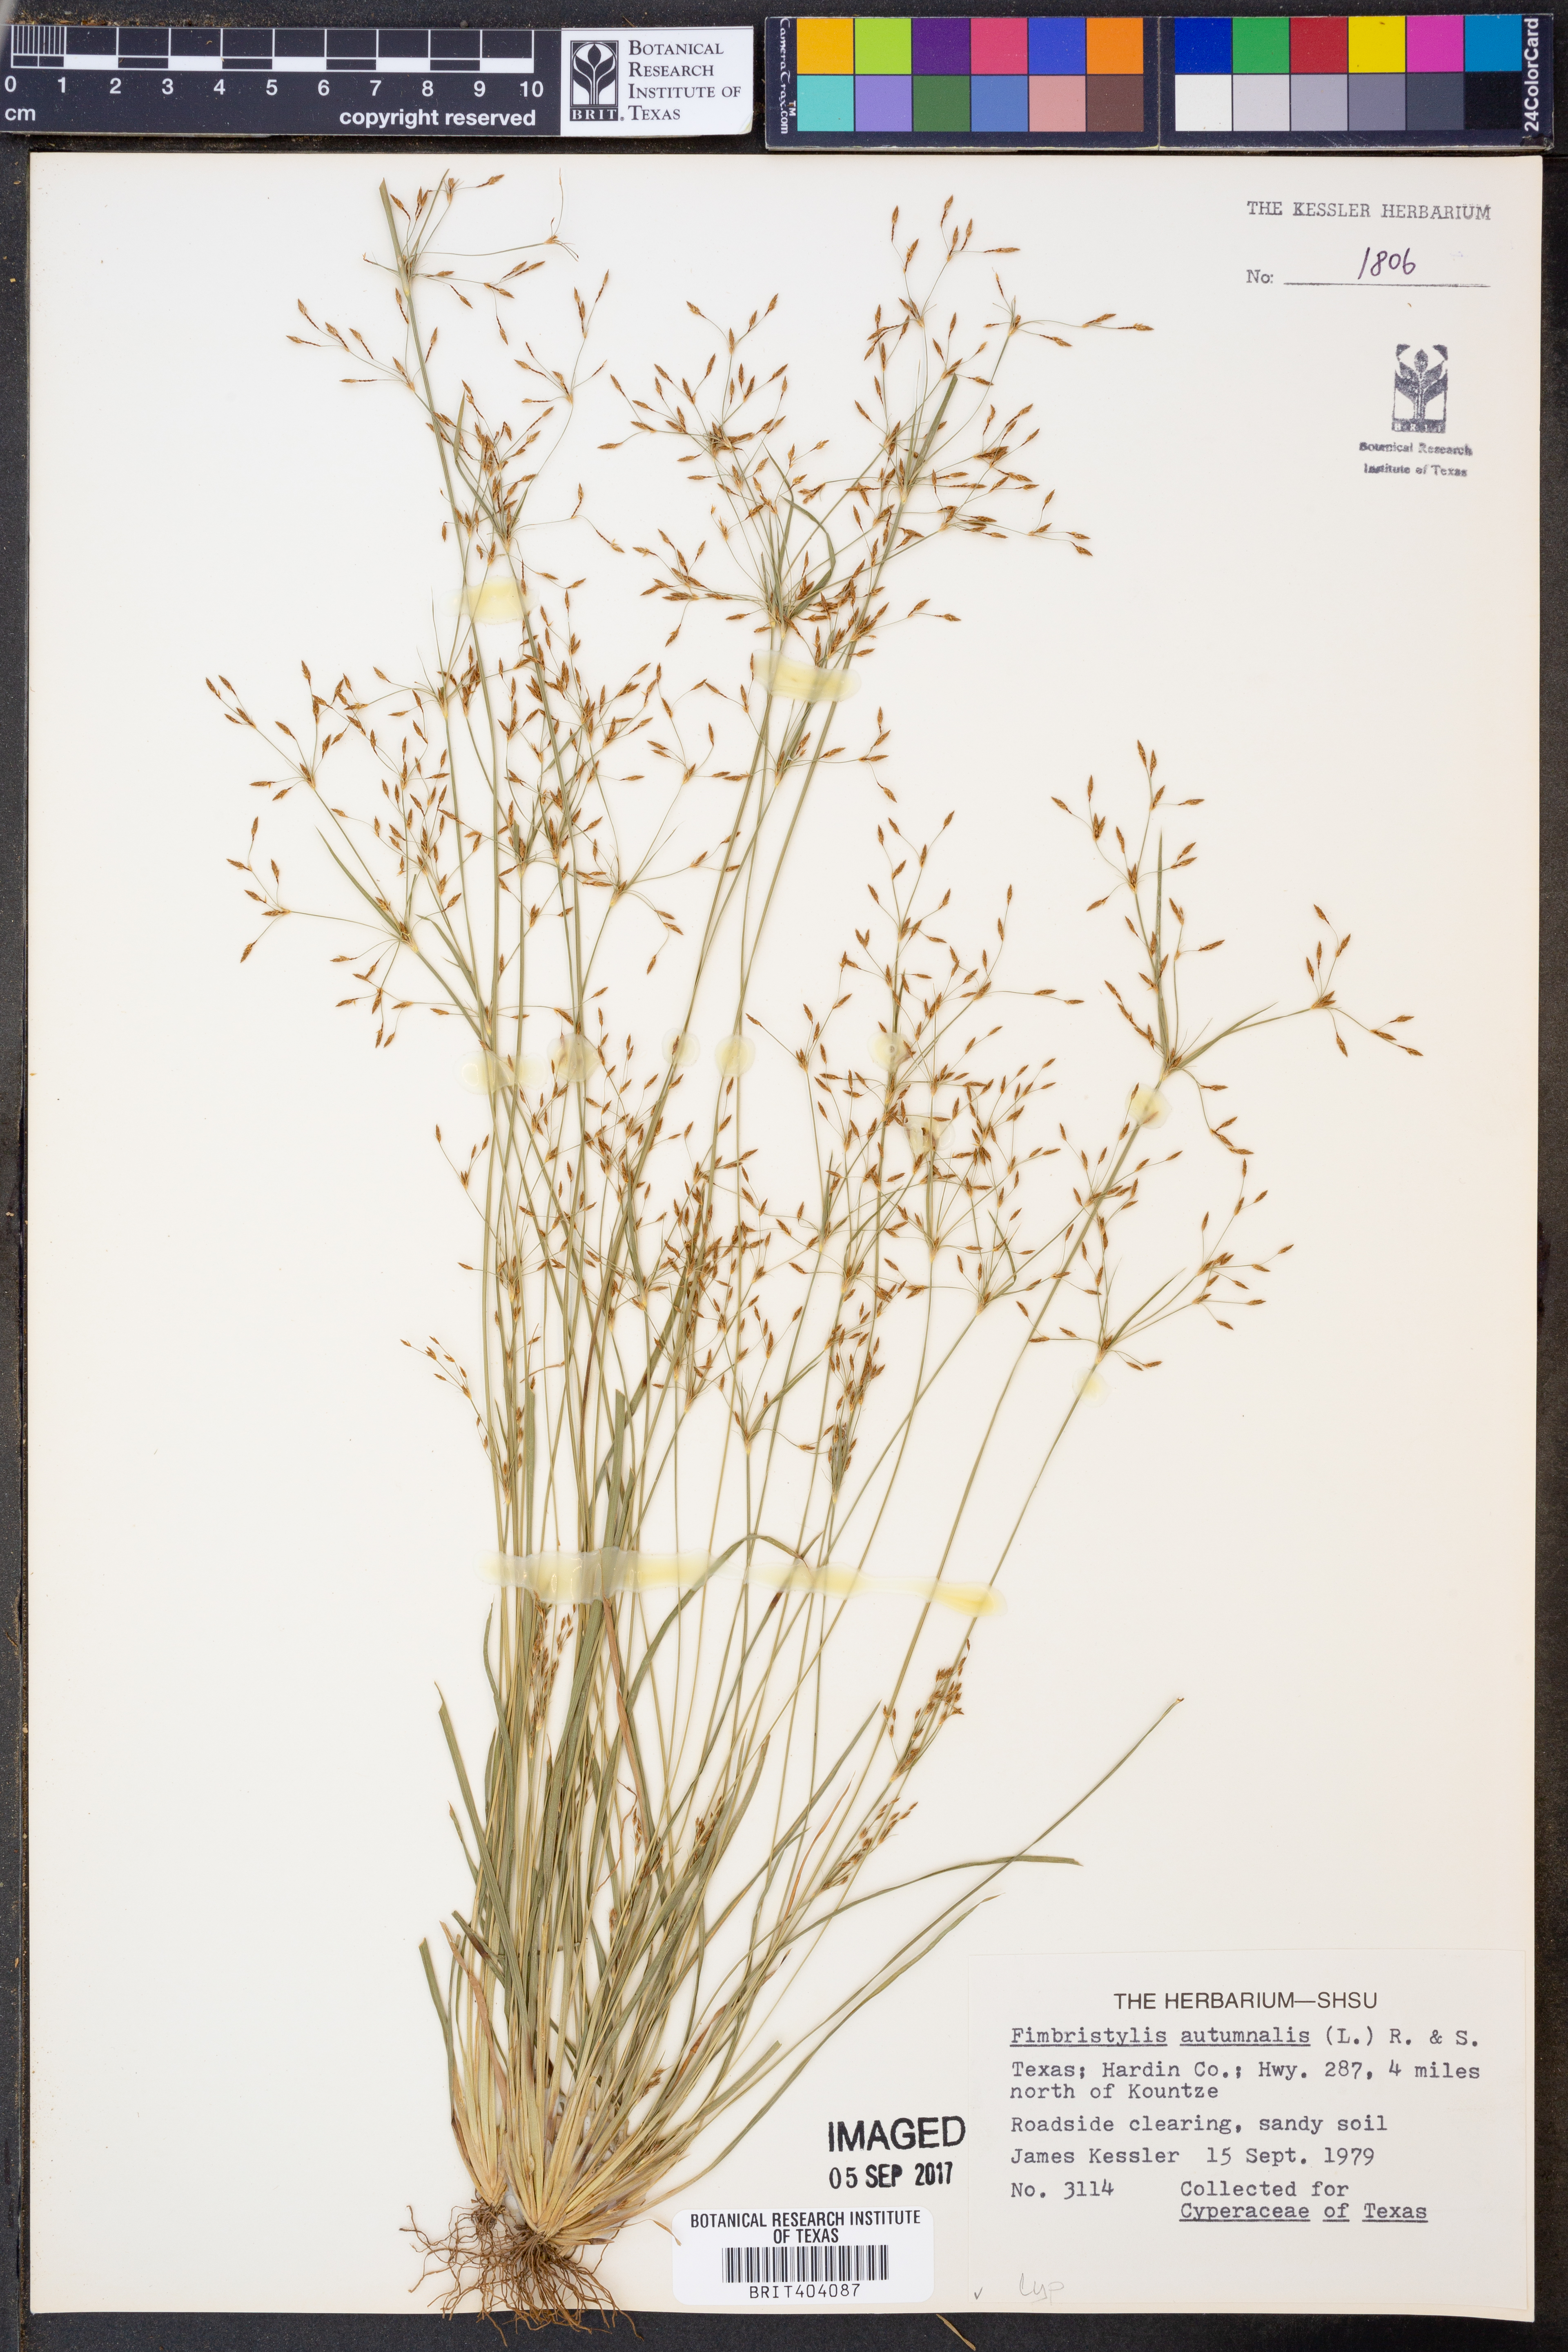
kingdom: Plantae
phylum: Tracheophyta
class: Liliopsida
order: Poales
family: Cyperaceae
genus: Fimbristylis
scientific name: Fimbristylis autumnalis
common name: Slender fimbristylis
